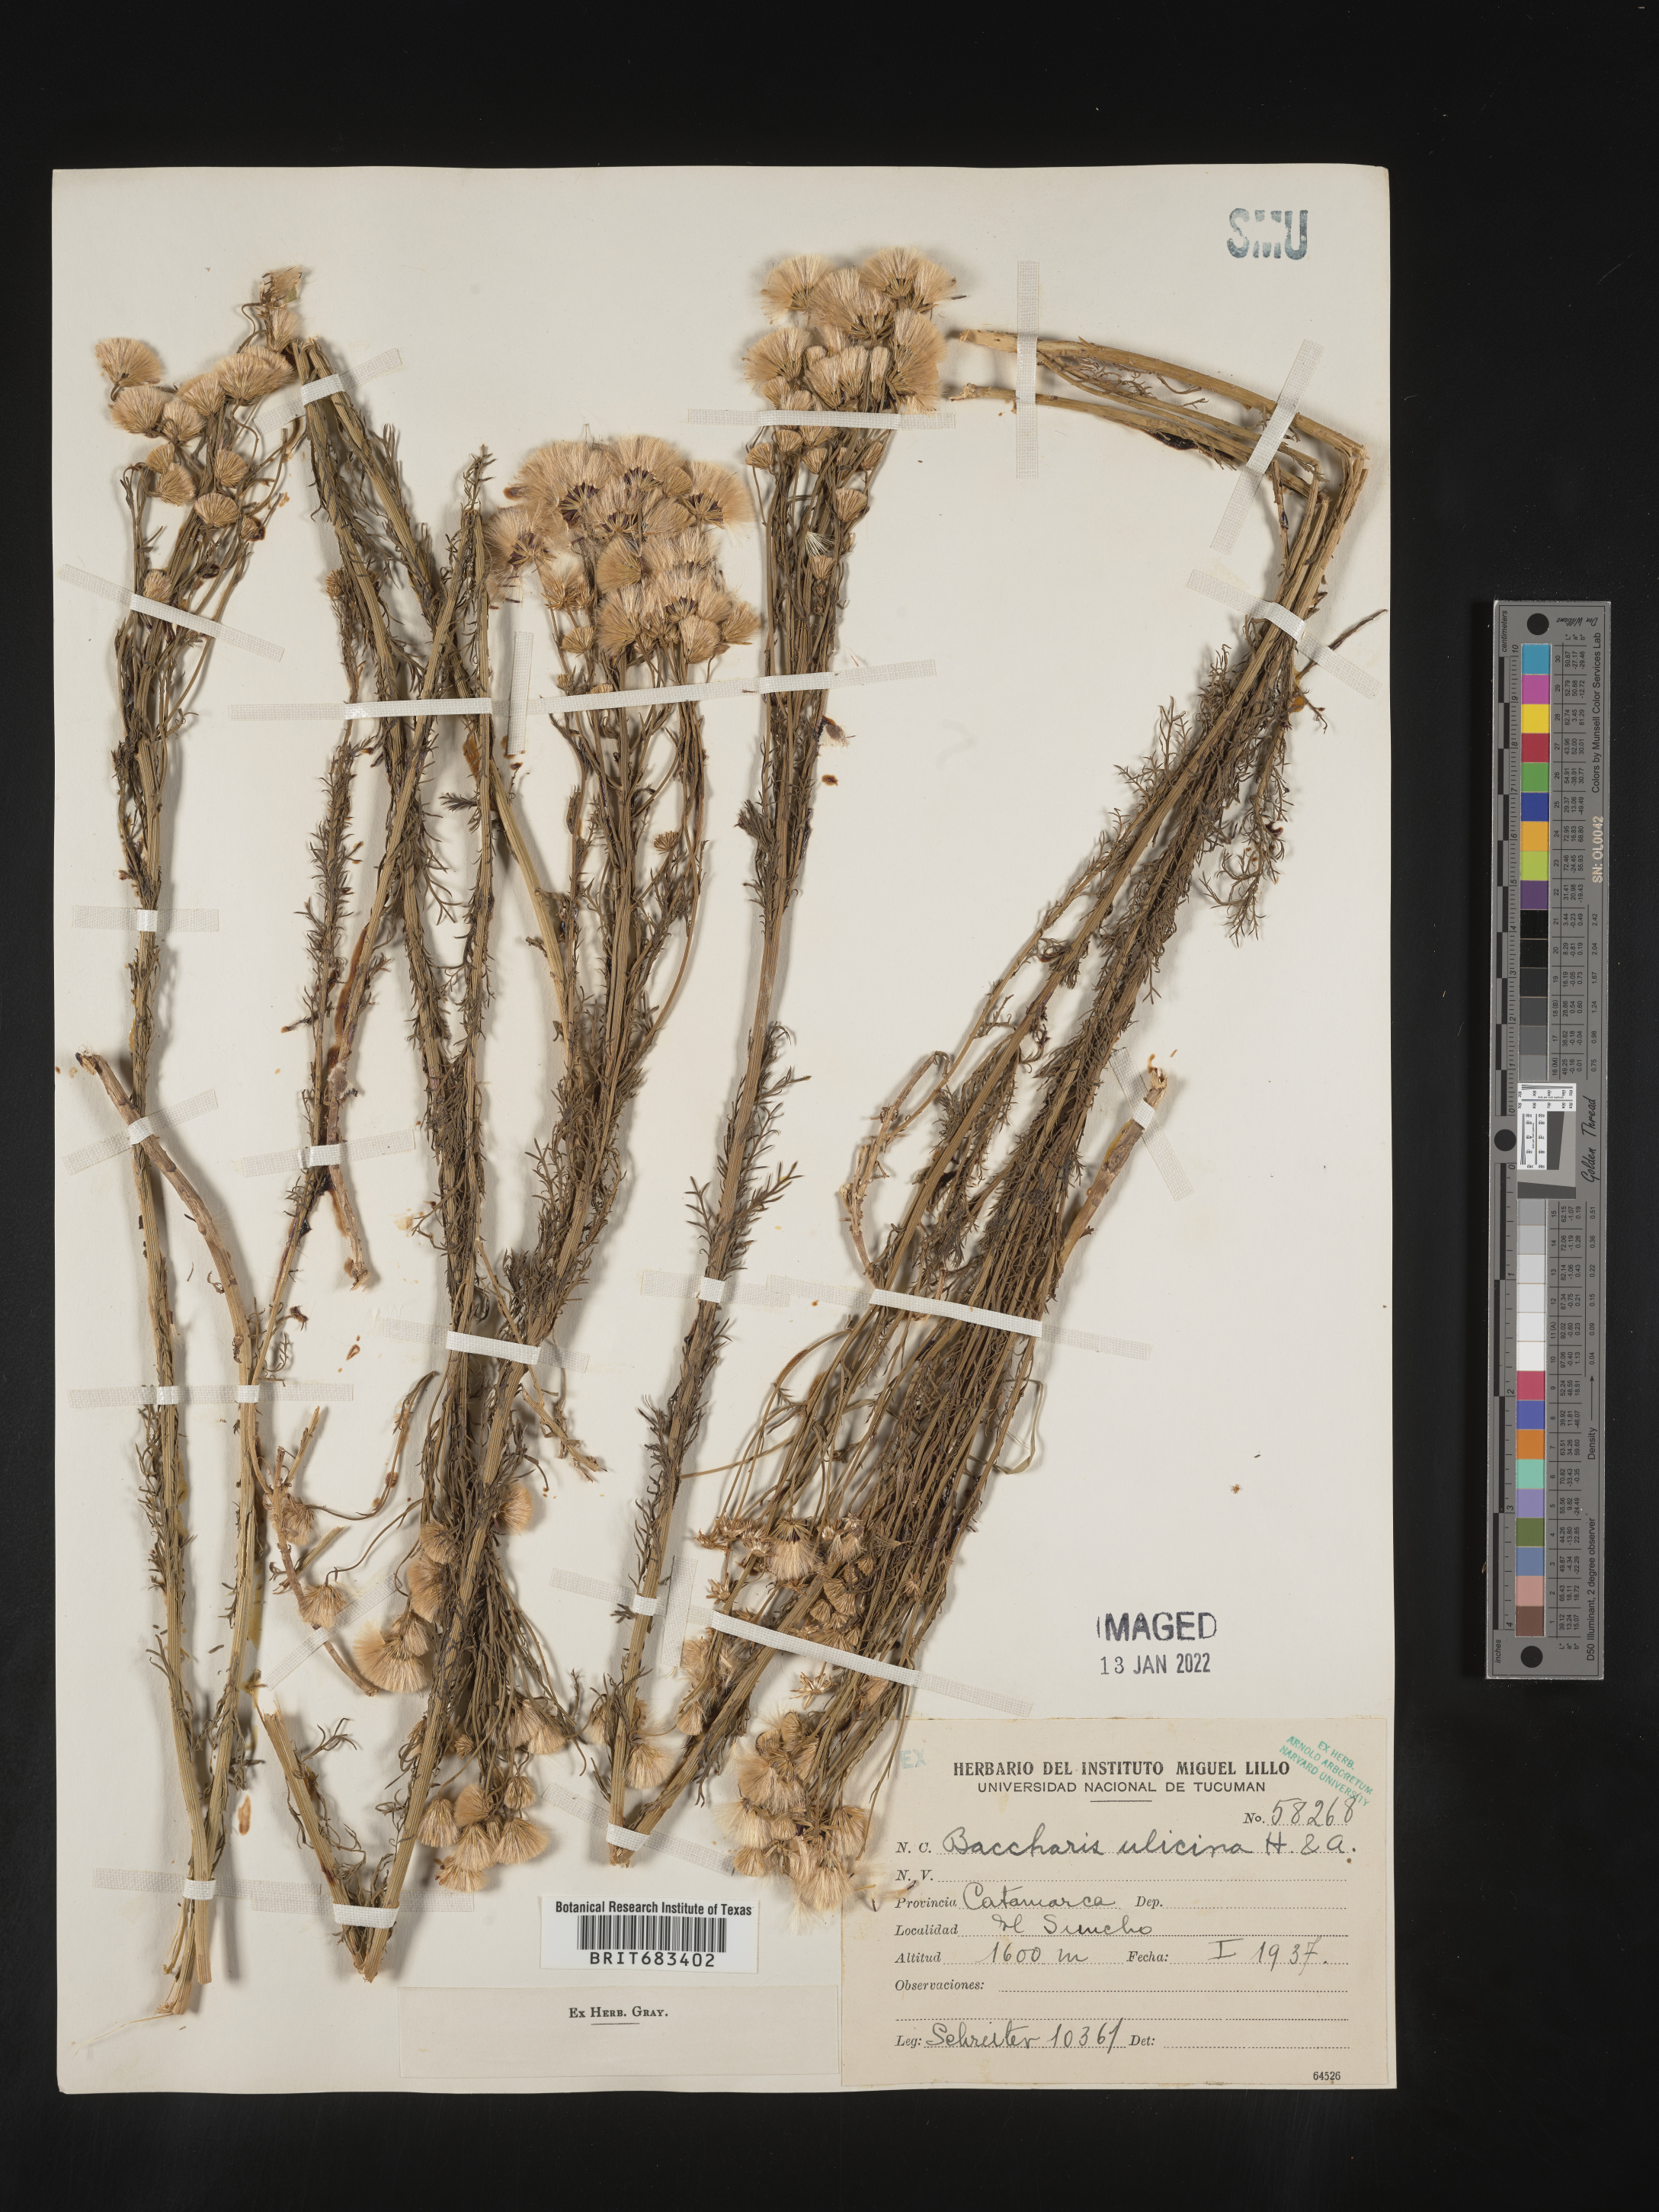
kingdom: Plantae
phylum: Tracheophyta
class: Magnoliopsida
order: Asterales
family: Asteraceae
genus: Baccharis
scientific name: Baccharis
